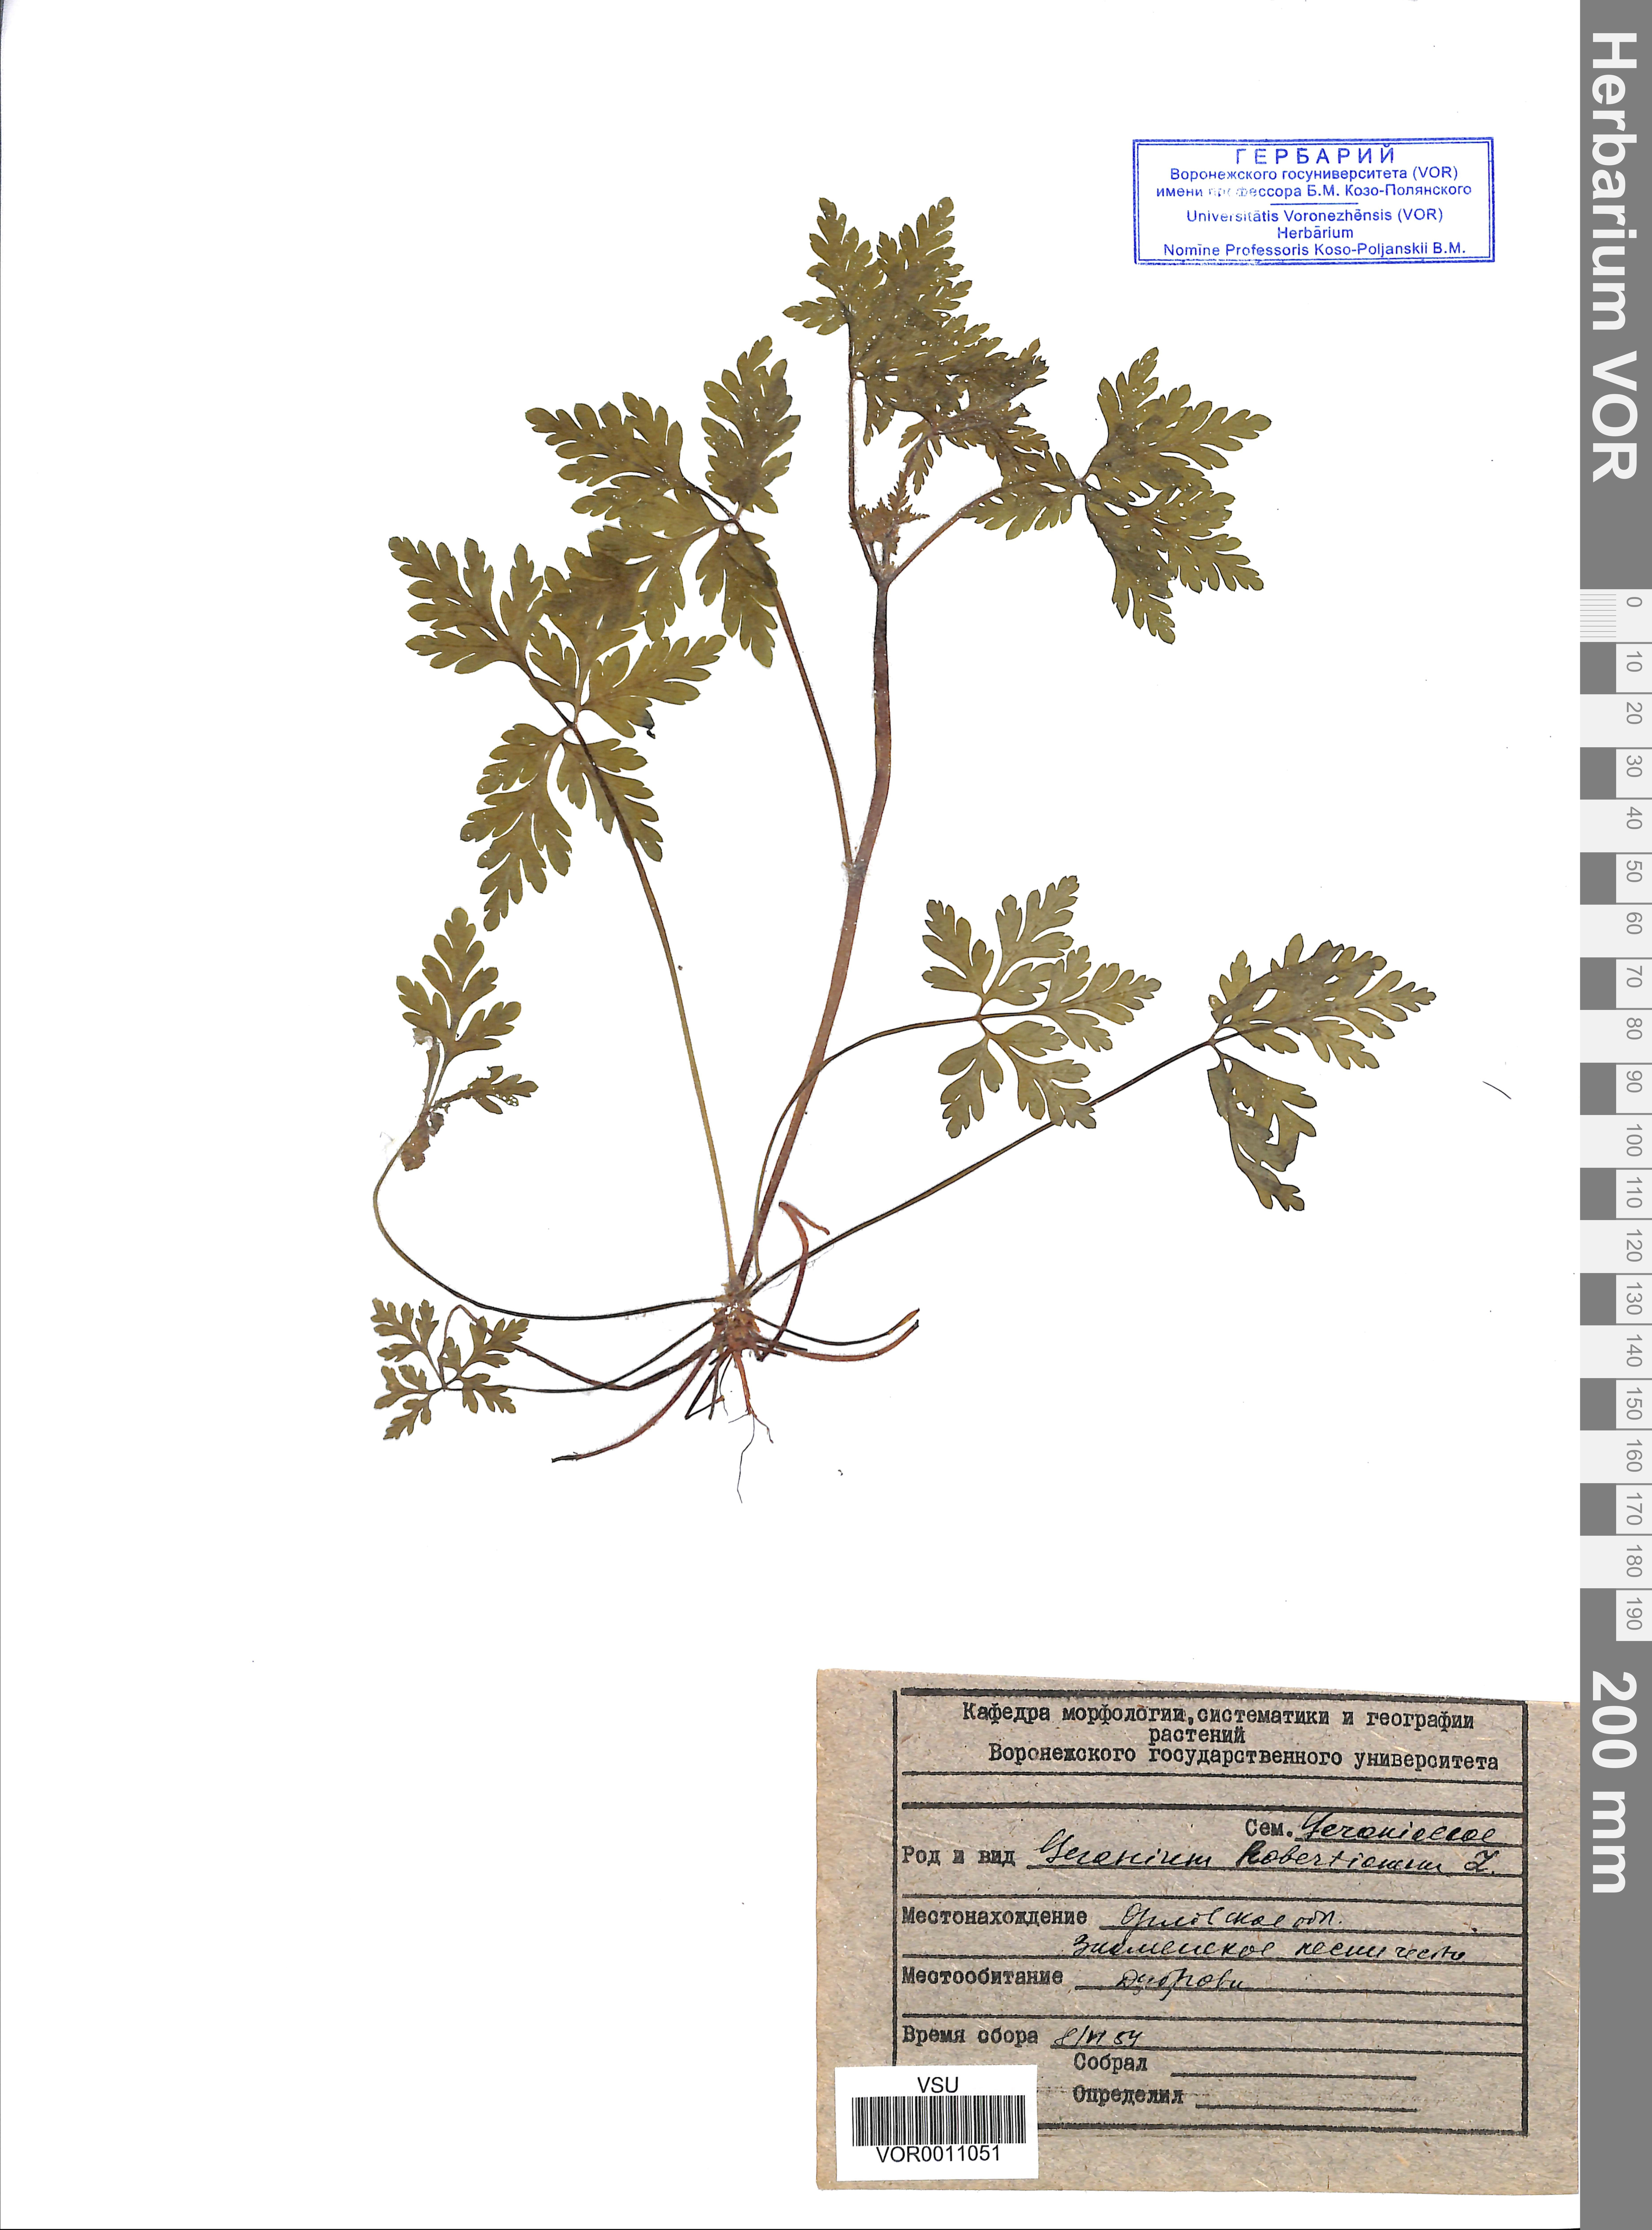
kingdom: Plantae
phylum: Tracheophyta
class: Magnoliopsida
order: Geraniales
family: Geraniaceae
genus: Geranium
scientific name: Geranium robertianum
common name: Herb-robert
